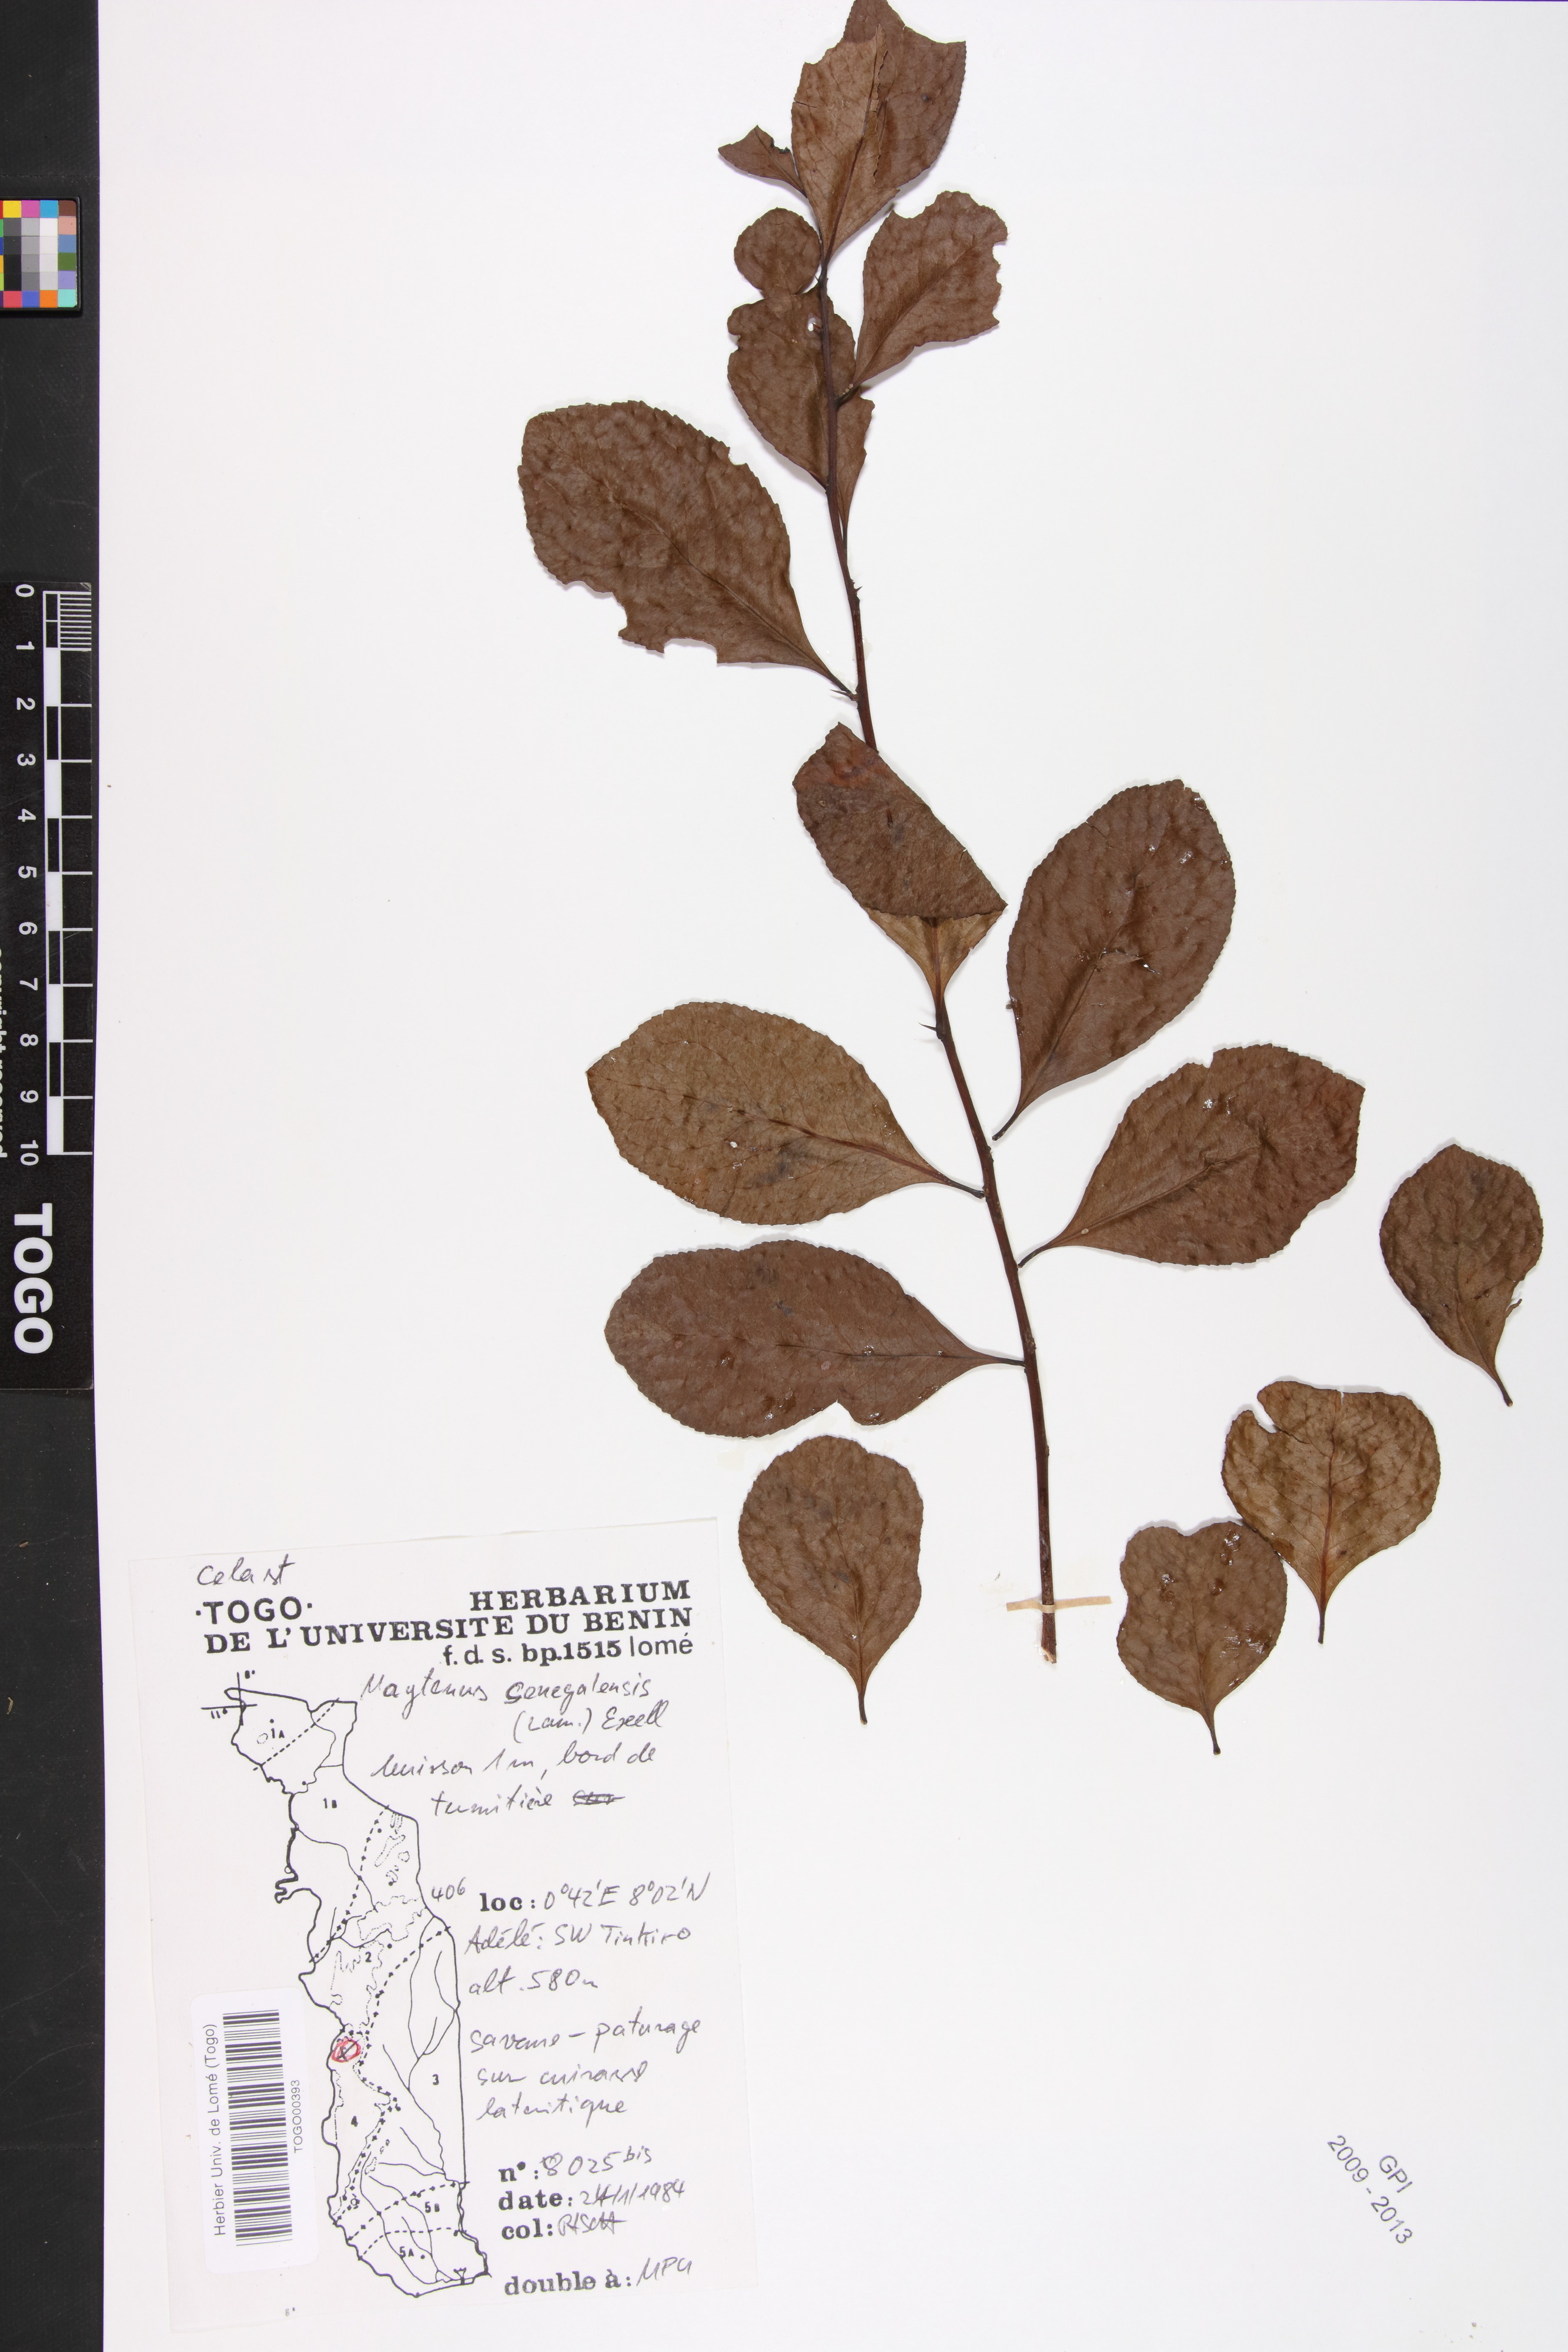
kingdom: Plantae
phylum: Tracheophyta
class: Magnoliopsida
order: Celastrales
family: Celastraceae
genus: Gymnosporia
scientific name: Gymnosporia senegalensis
